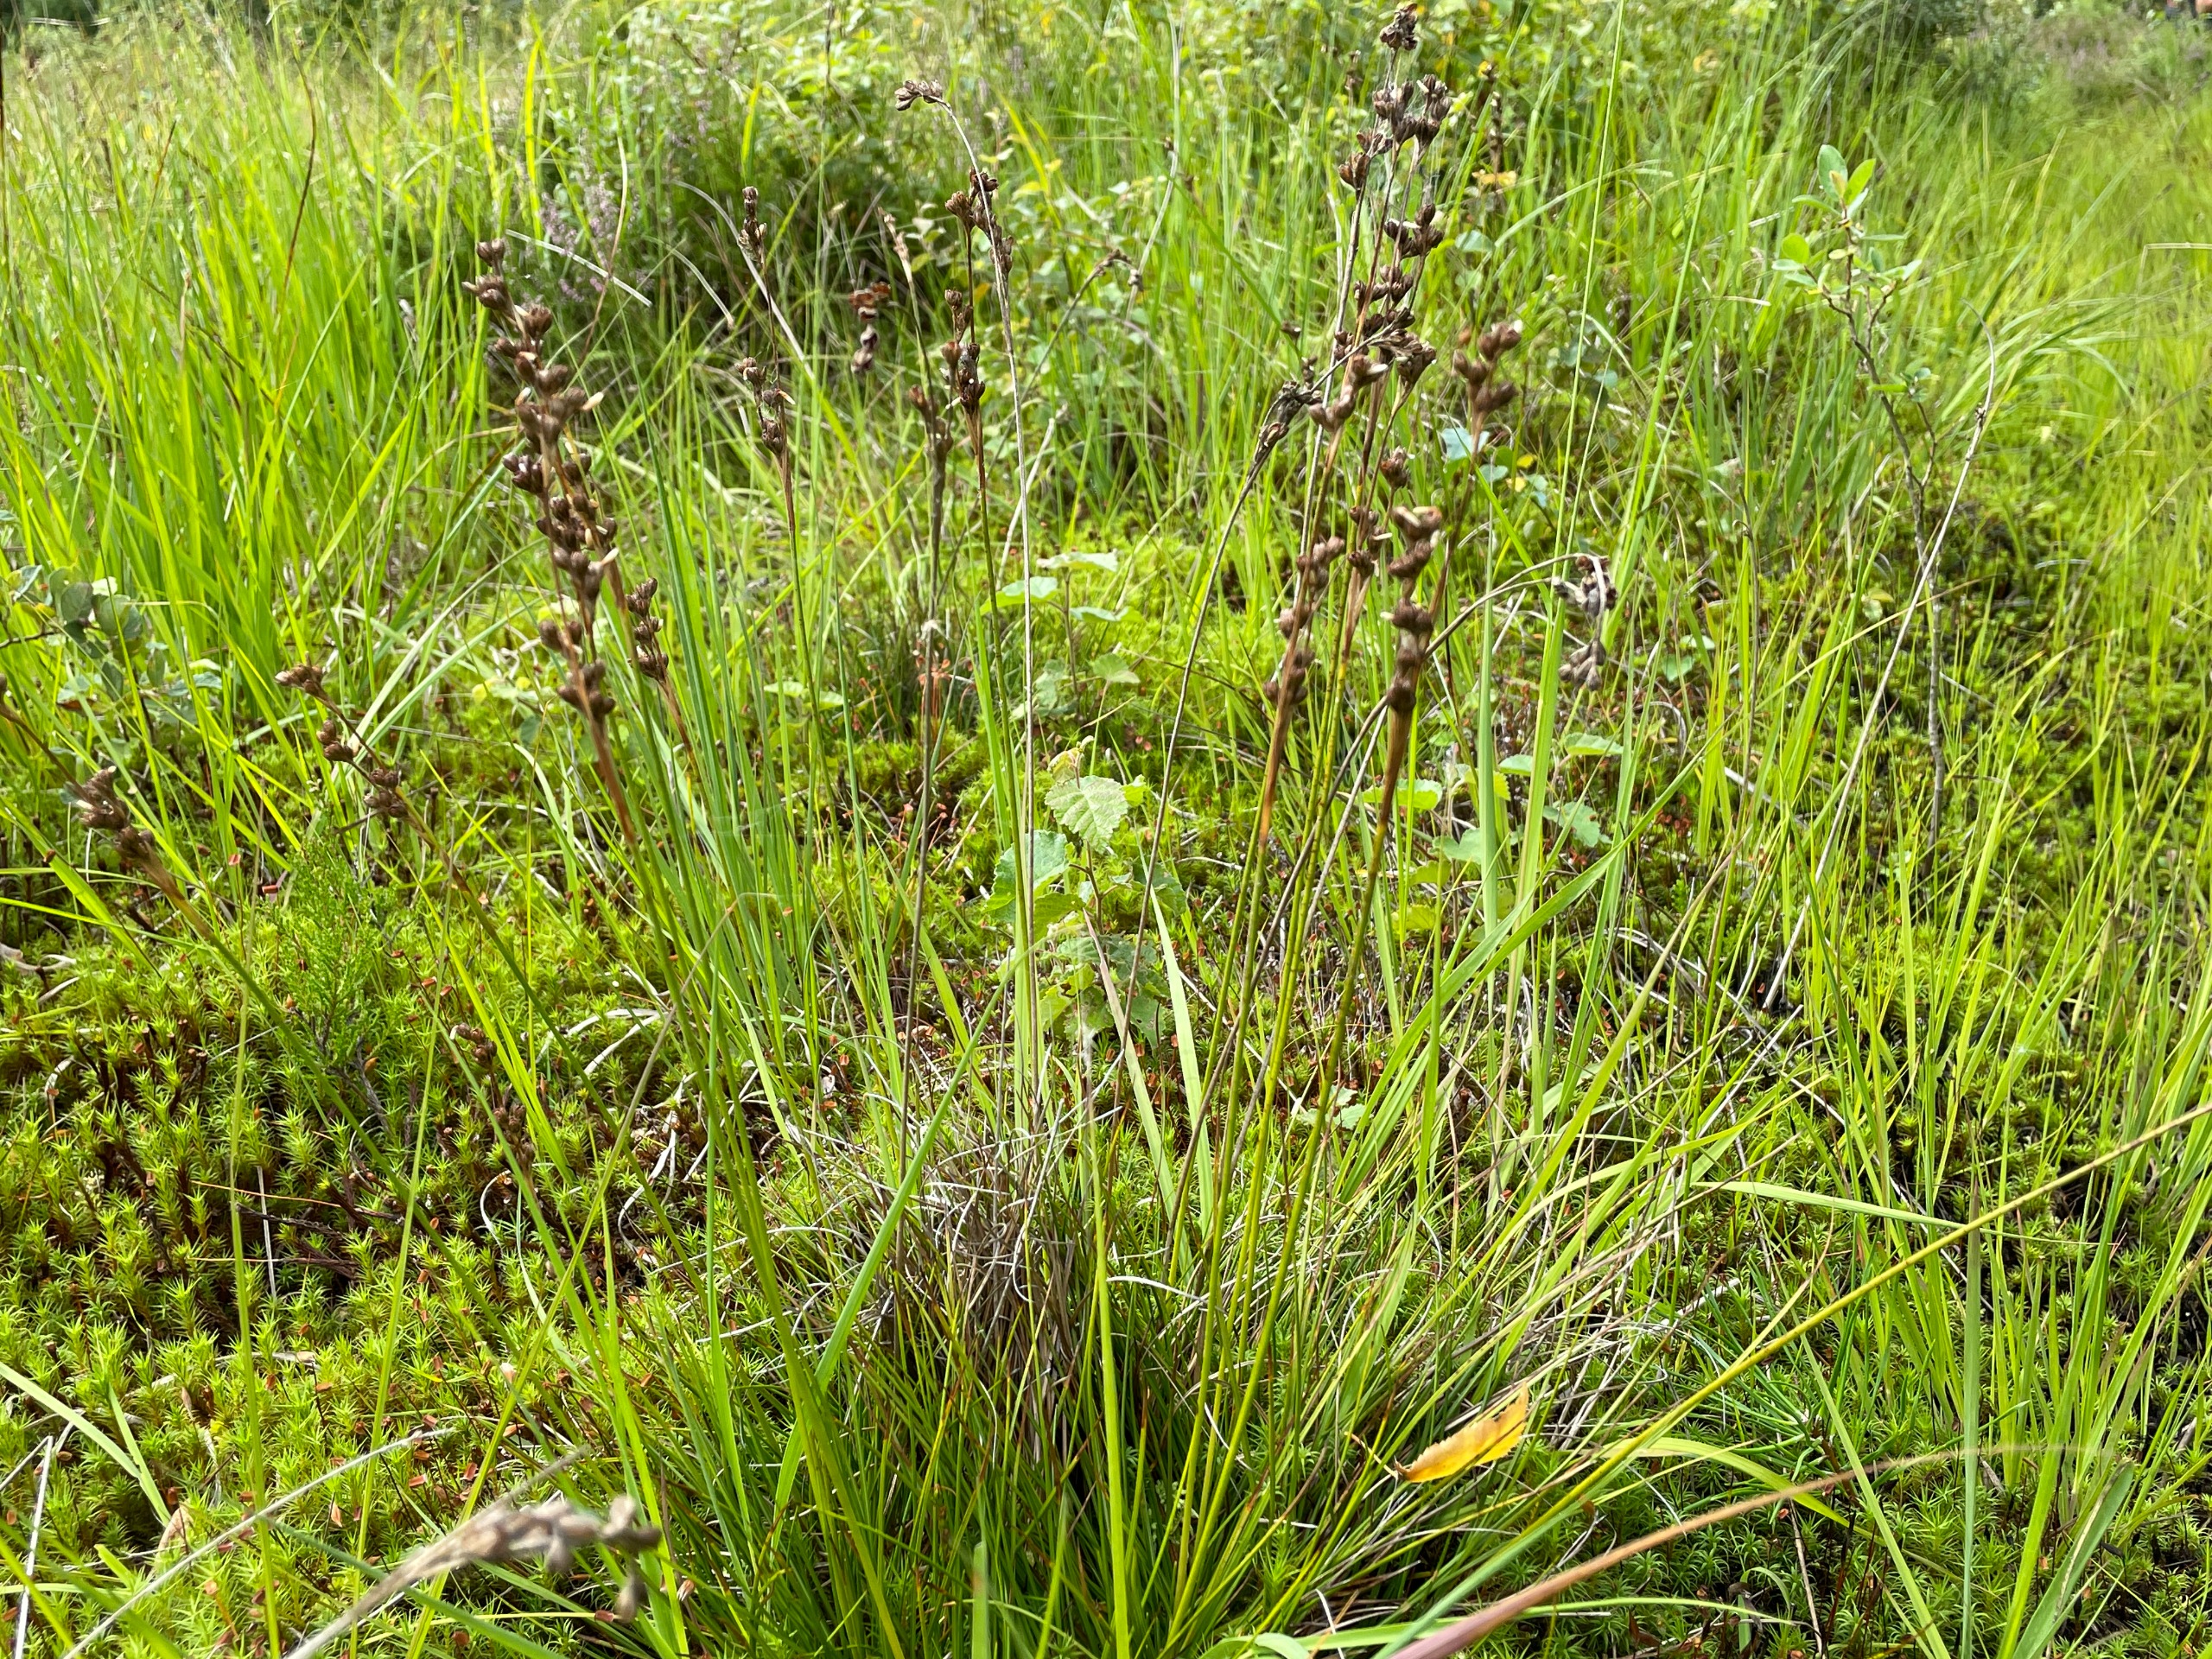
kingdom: Plantae
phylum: Tracheophyta
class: Liliopsida
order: Poales
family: Juncaceae
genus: Juncus
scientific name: Juncus squarrosus
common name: Børste-siv
